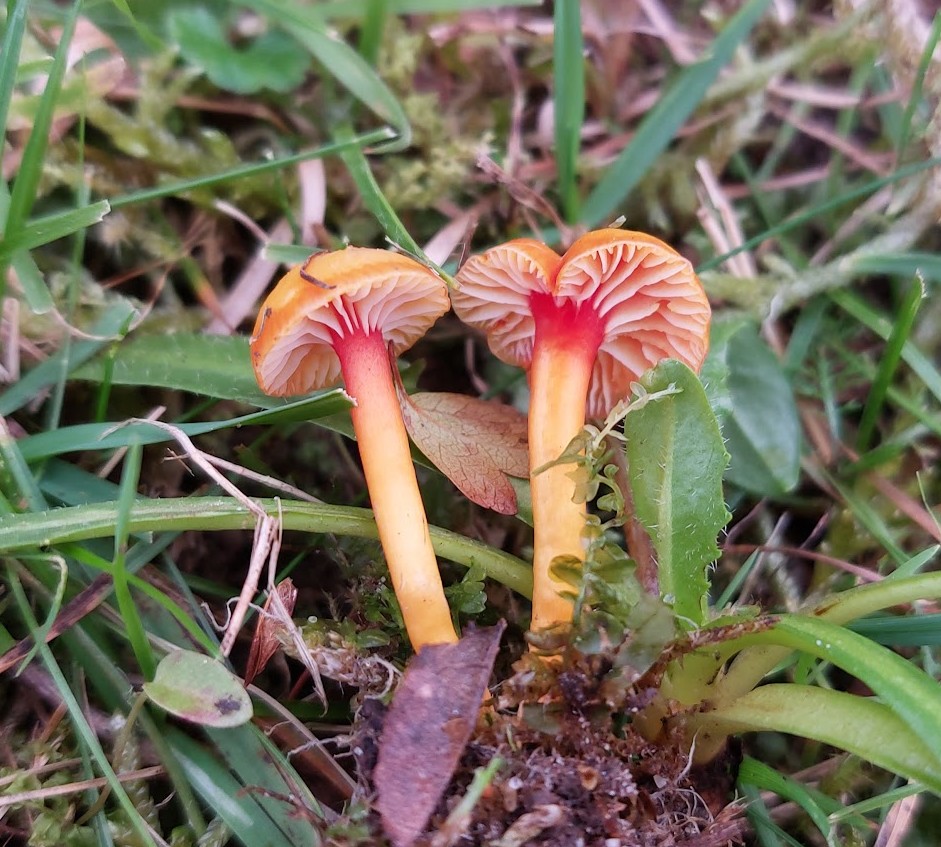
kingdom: Fungi
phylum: Basidiomycota
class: Agaricomycetes
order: Agaricales
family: Hygrophoraceae
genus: Hygrocybe
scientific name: Hygrocybe mucronella
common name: bitter vokshat
